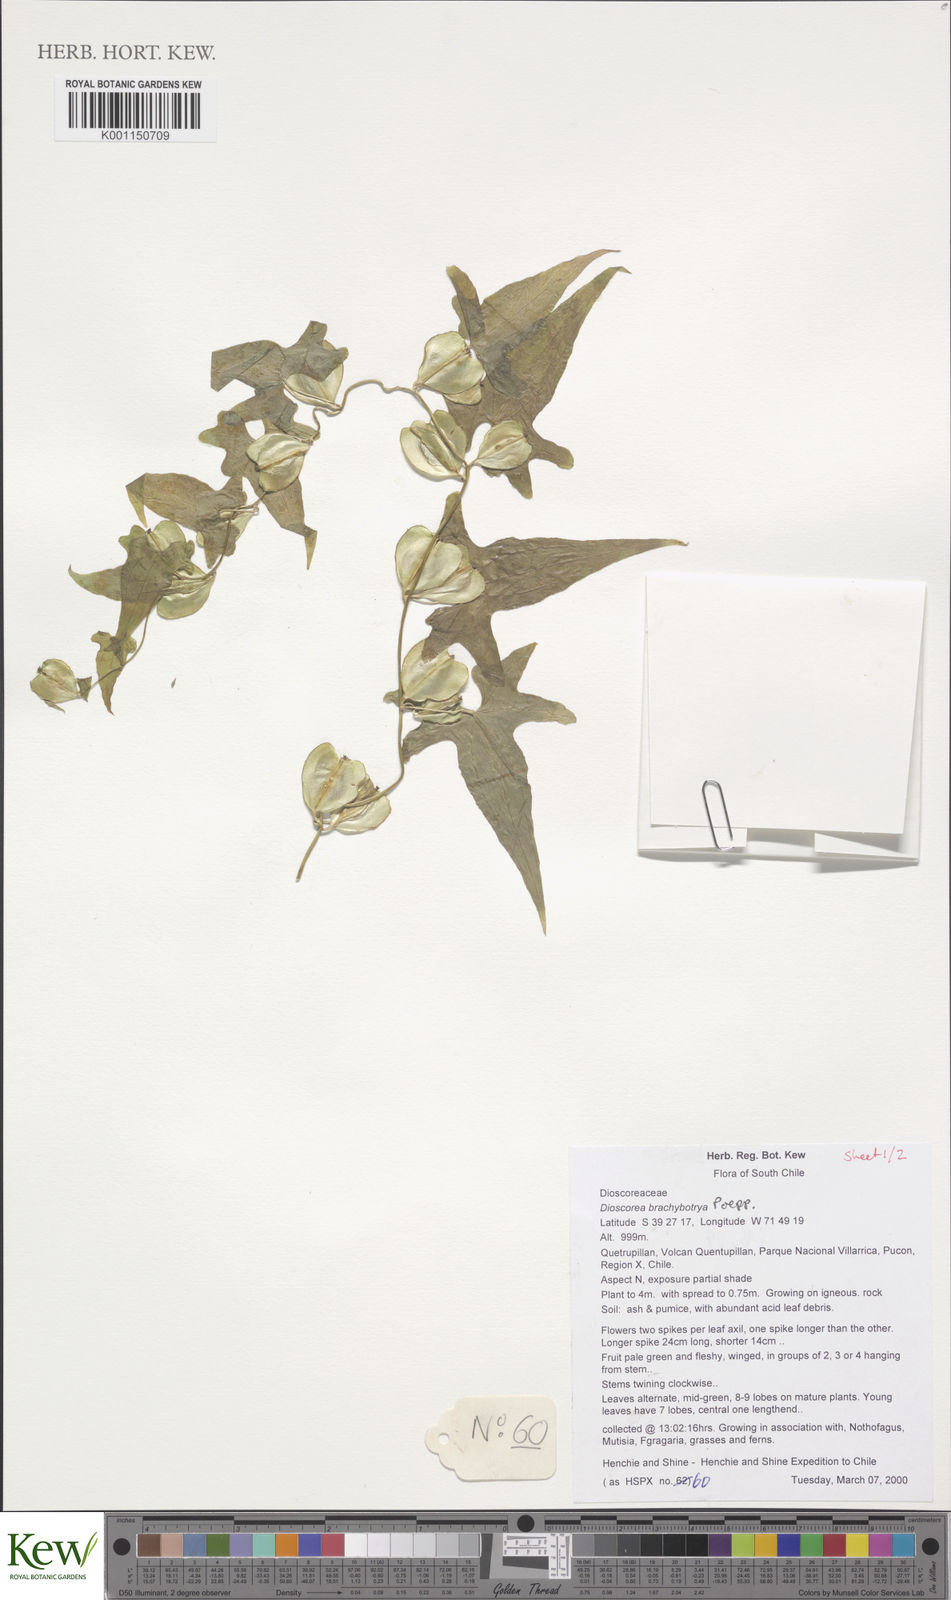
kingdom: Plantae
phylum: Tracheophyta
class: Liliopsida
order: Dioscoreales
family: Dioscoreaceae
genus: Dioscorea
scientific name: Dioscorea brachybotrya
